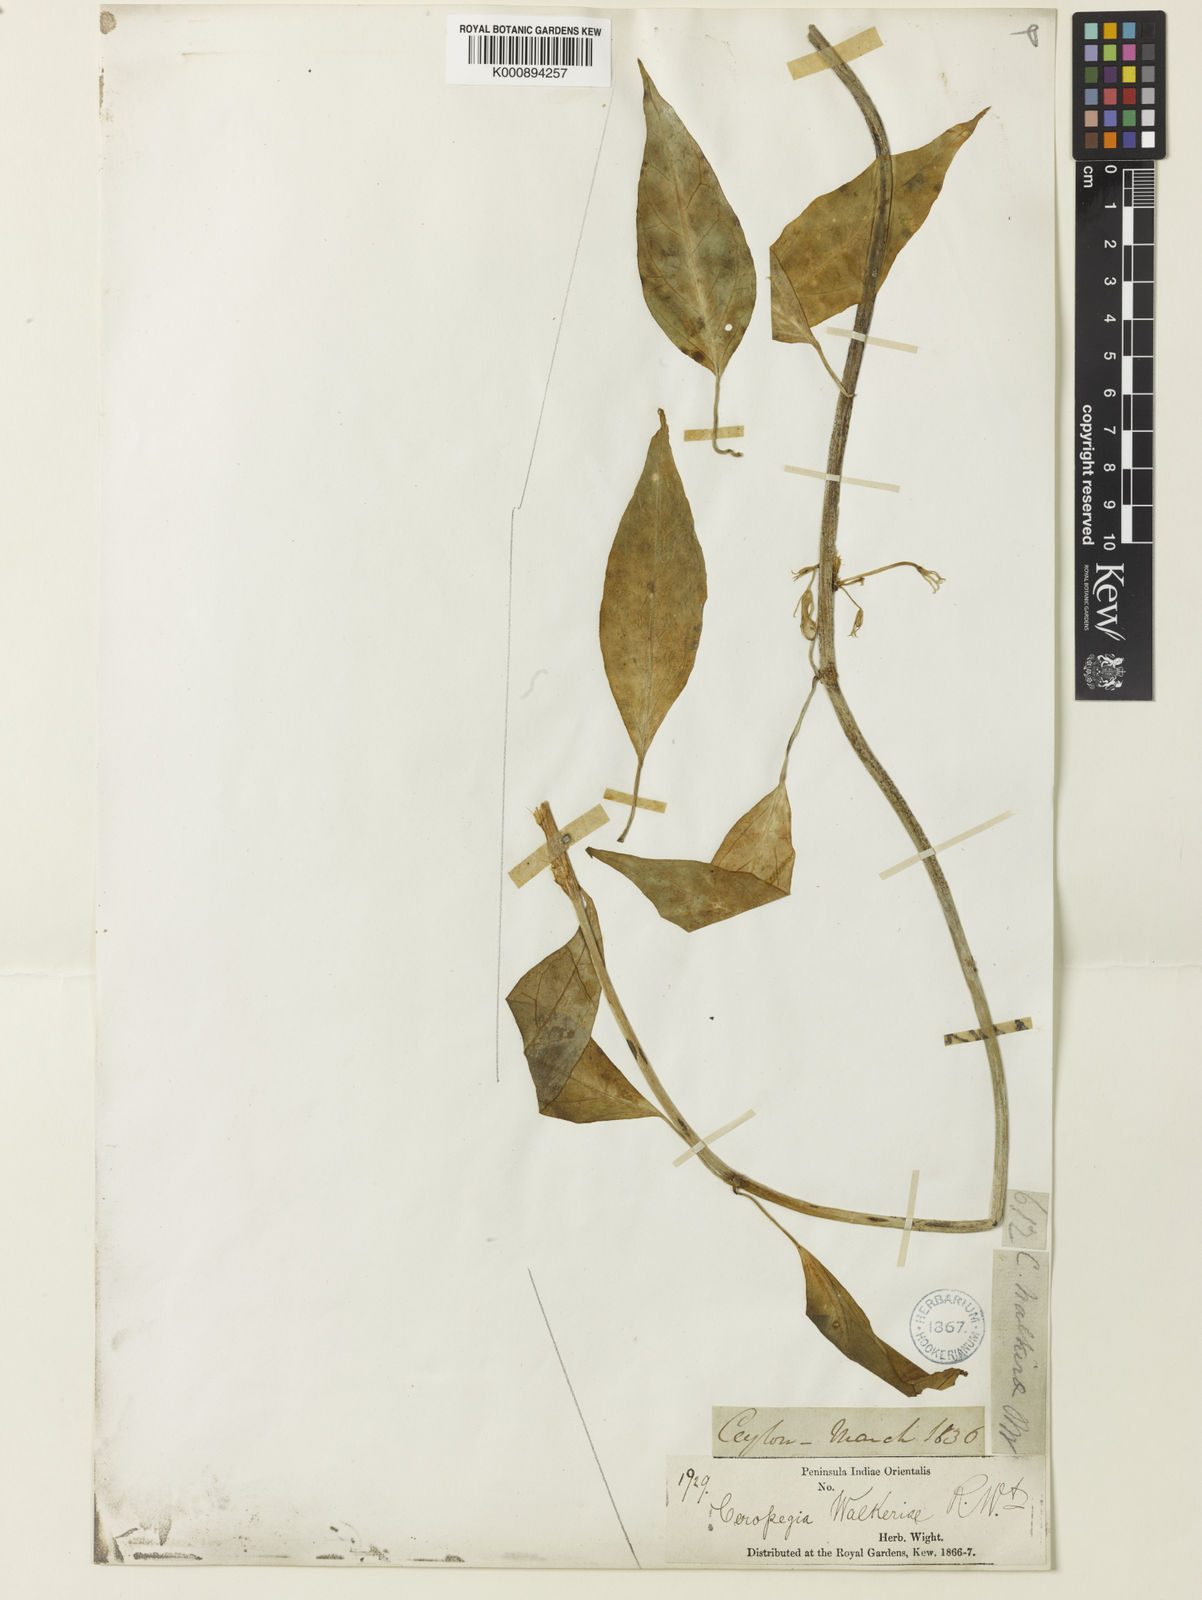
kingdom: Plantae
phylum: Tracheophyta
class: Magnoliopsida
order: Gentianales
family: Apocynaceae
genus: Ceropegia
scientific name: Ceropegia elegans
